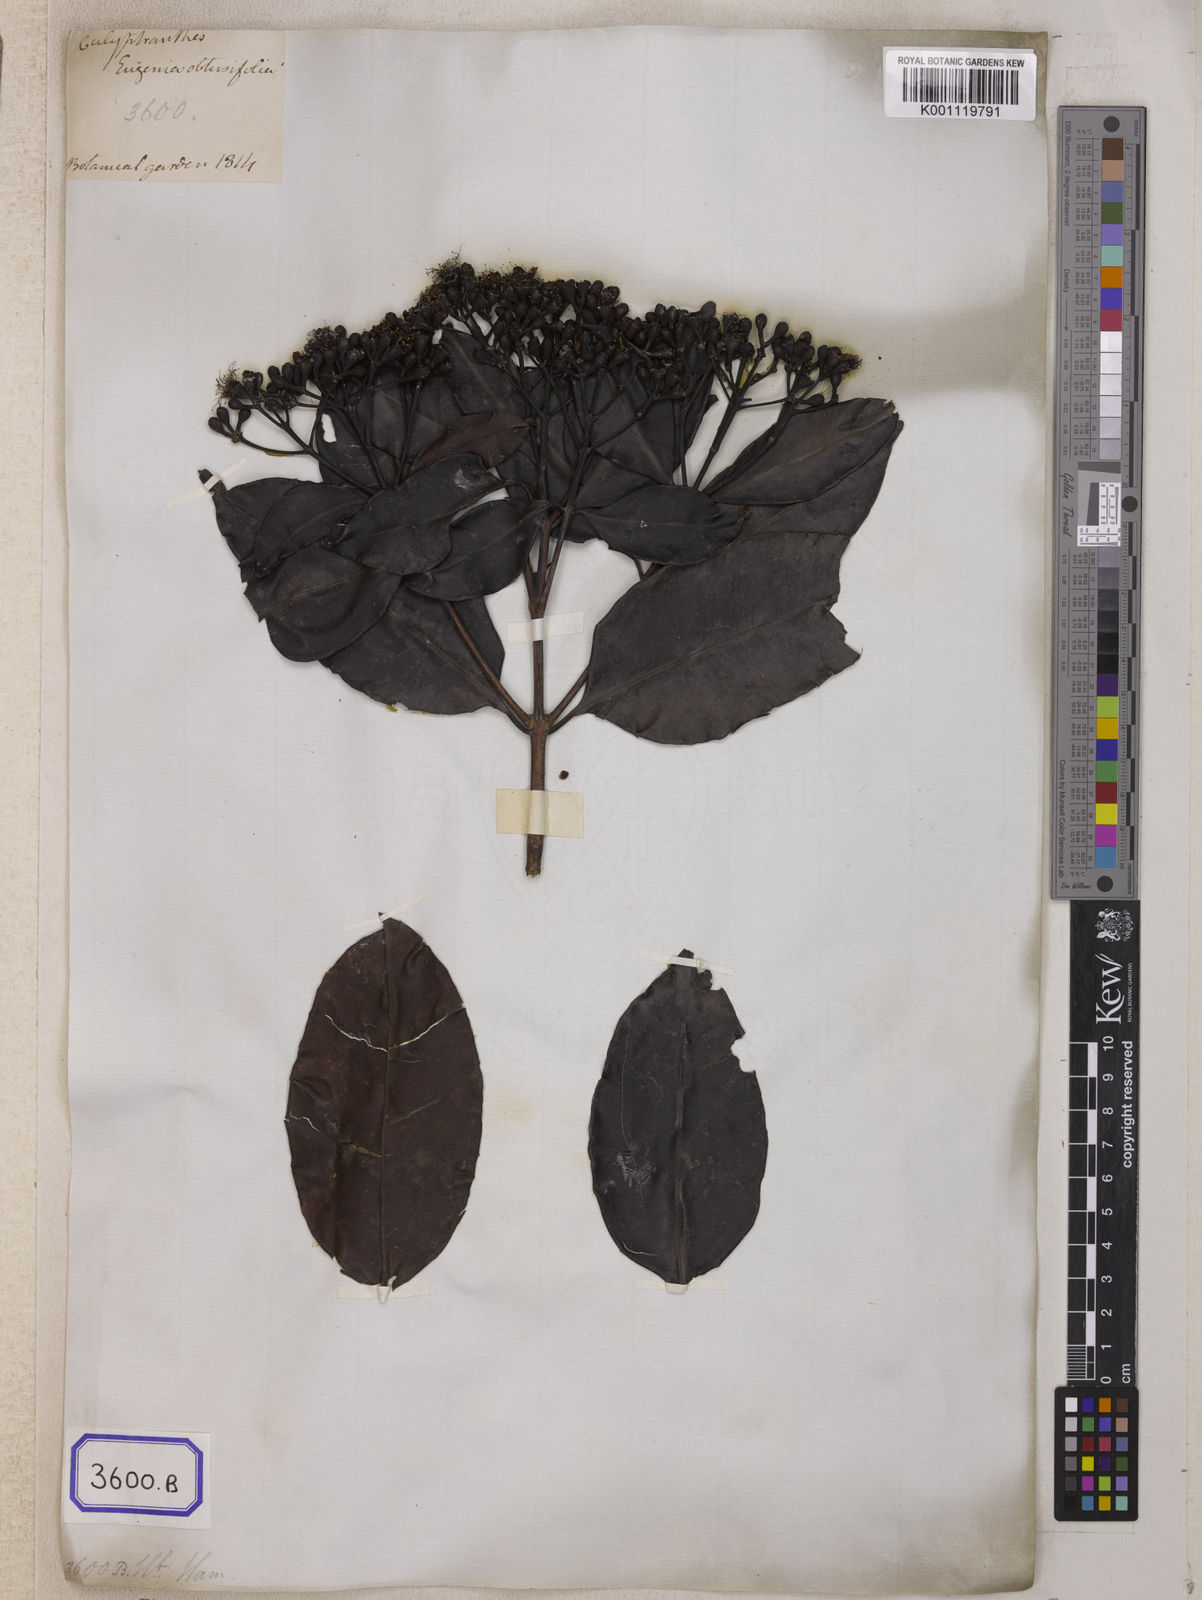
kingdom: Plantae
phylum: Tracheophyta
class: Magnoliopsida
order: Myrtales
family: Myrtaceae
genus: Syzygium
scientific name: Syzygium inophyllum
